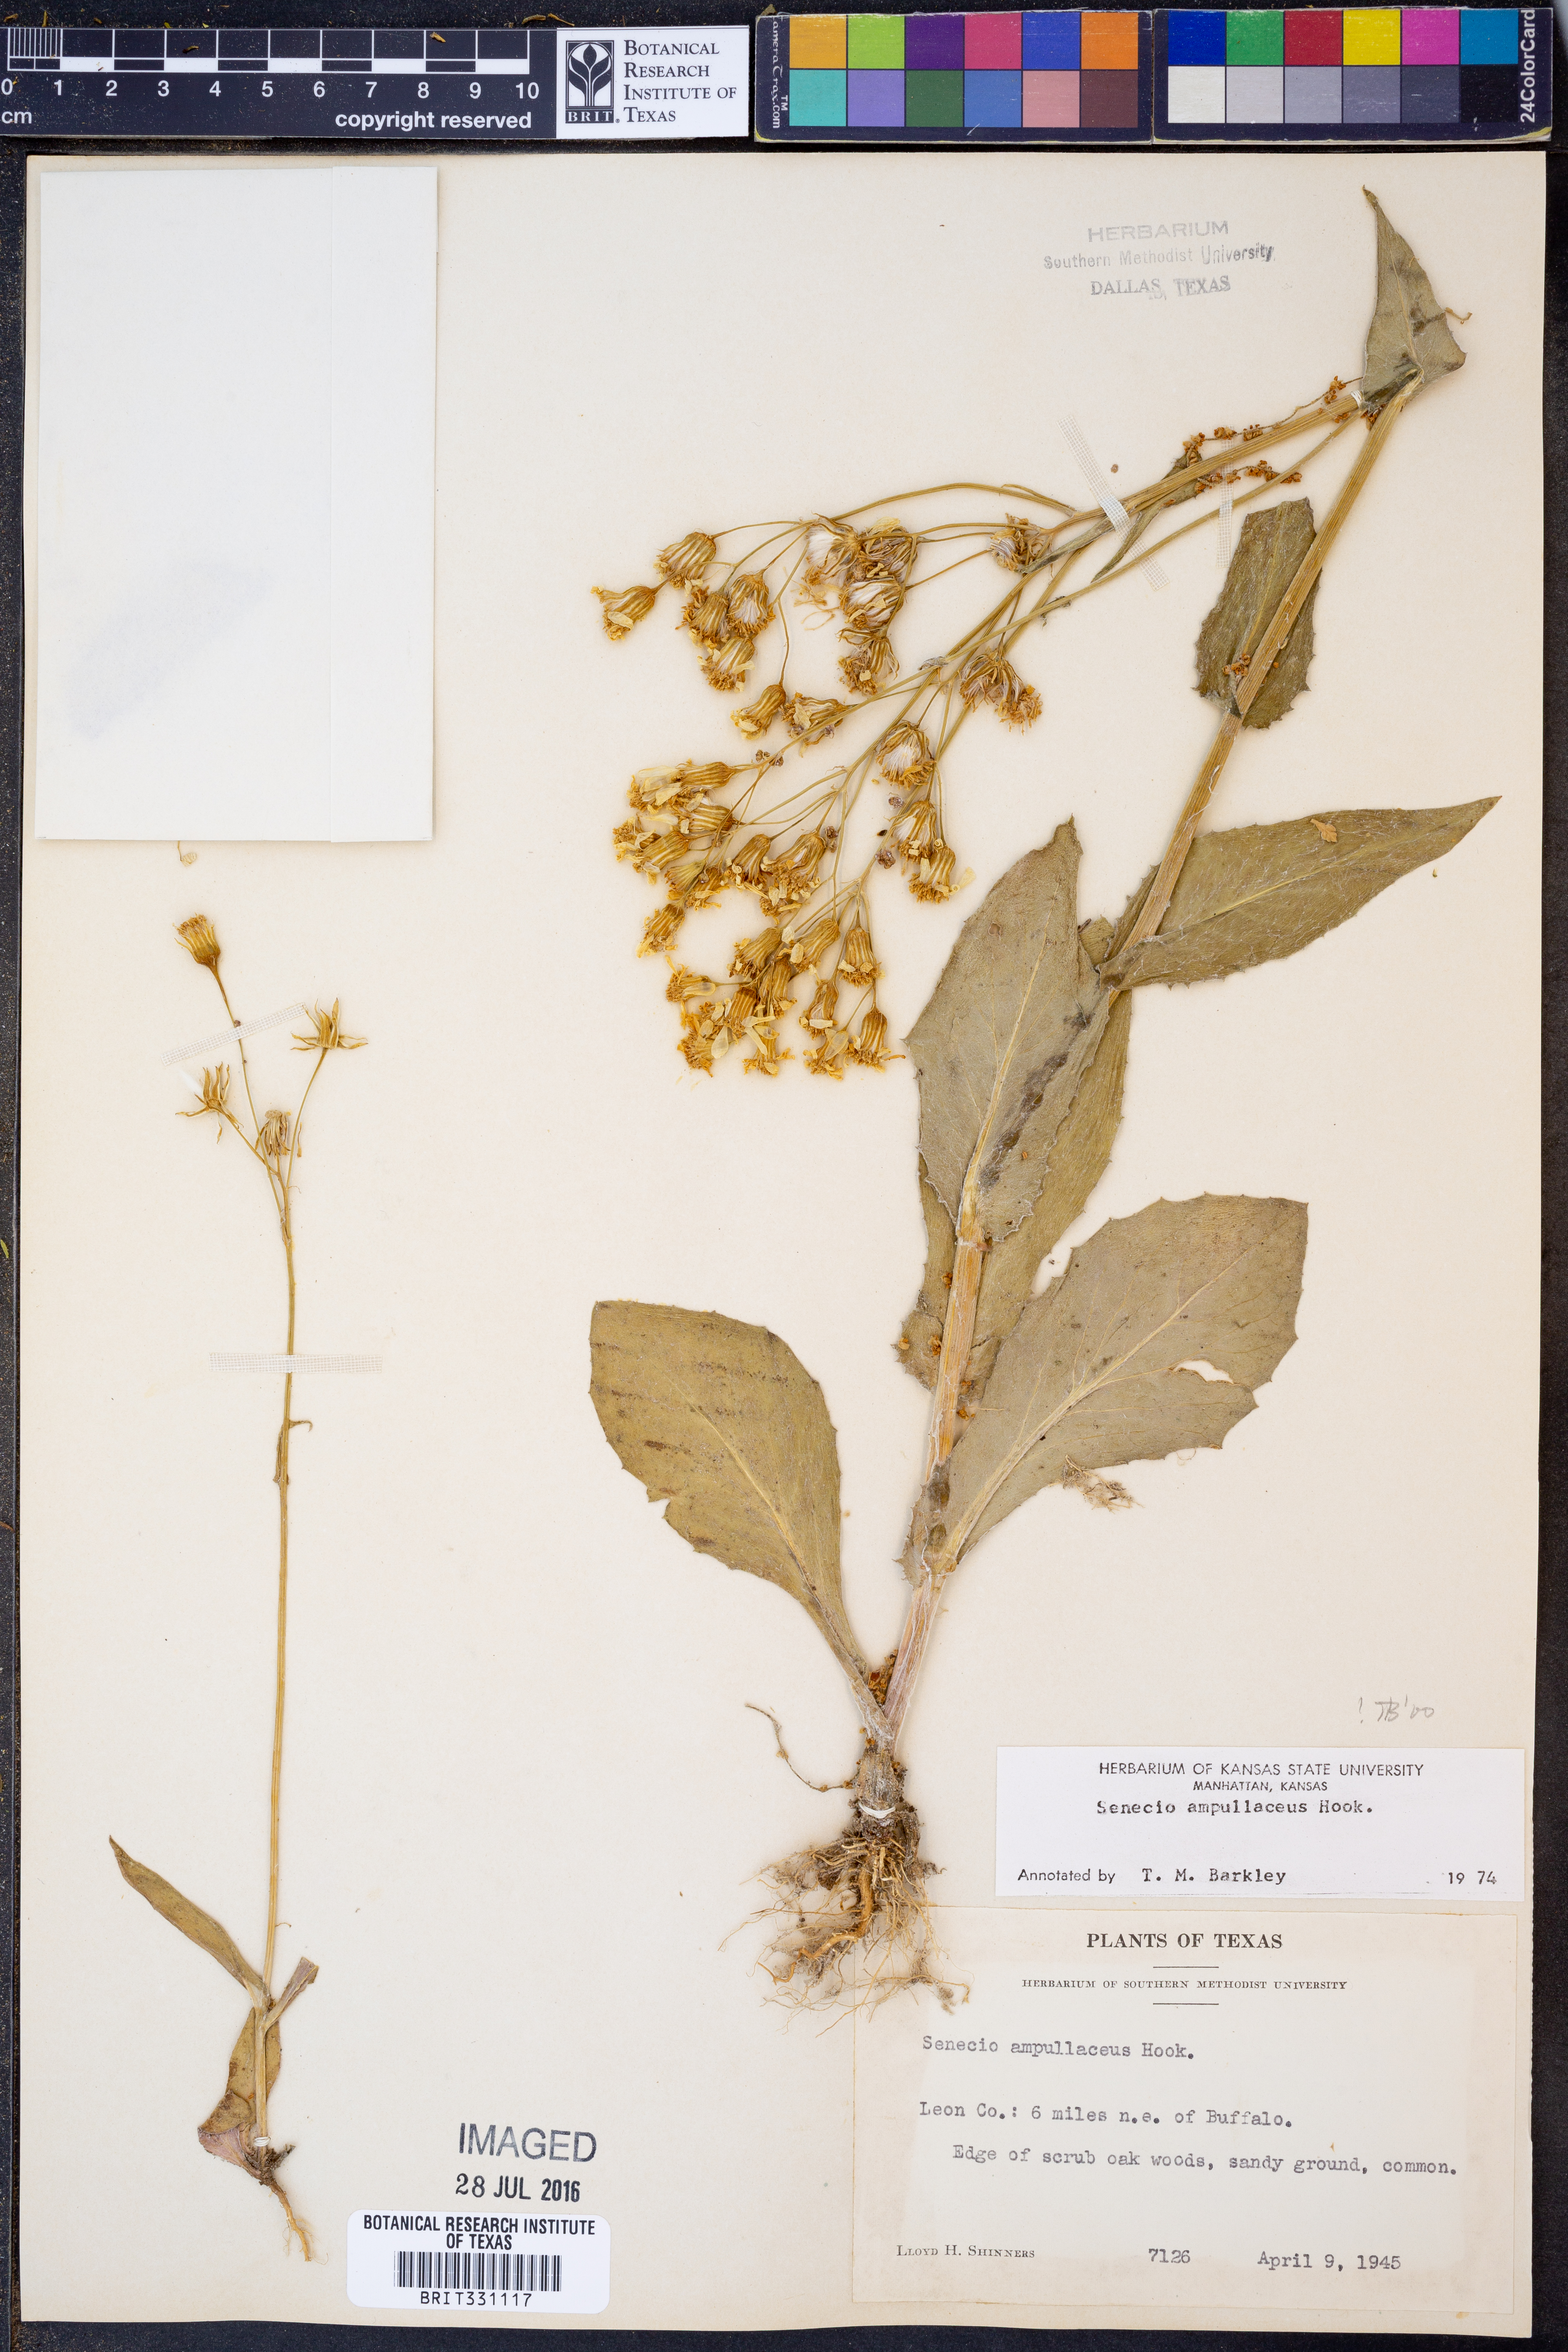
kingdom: Plantae
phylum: Tracheophyta
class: Magnoliopsida
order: Asterales
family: Asteraceae
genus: Senecio
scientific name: Senecio ampullaceus
